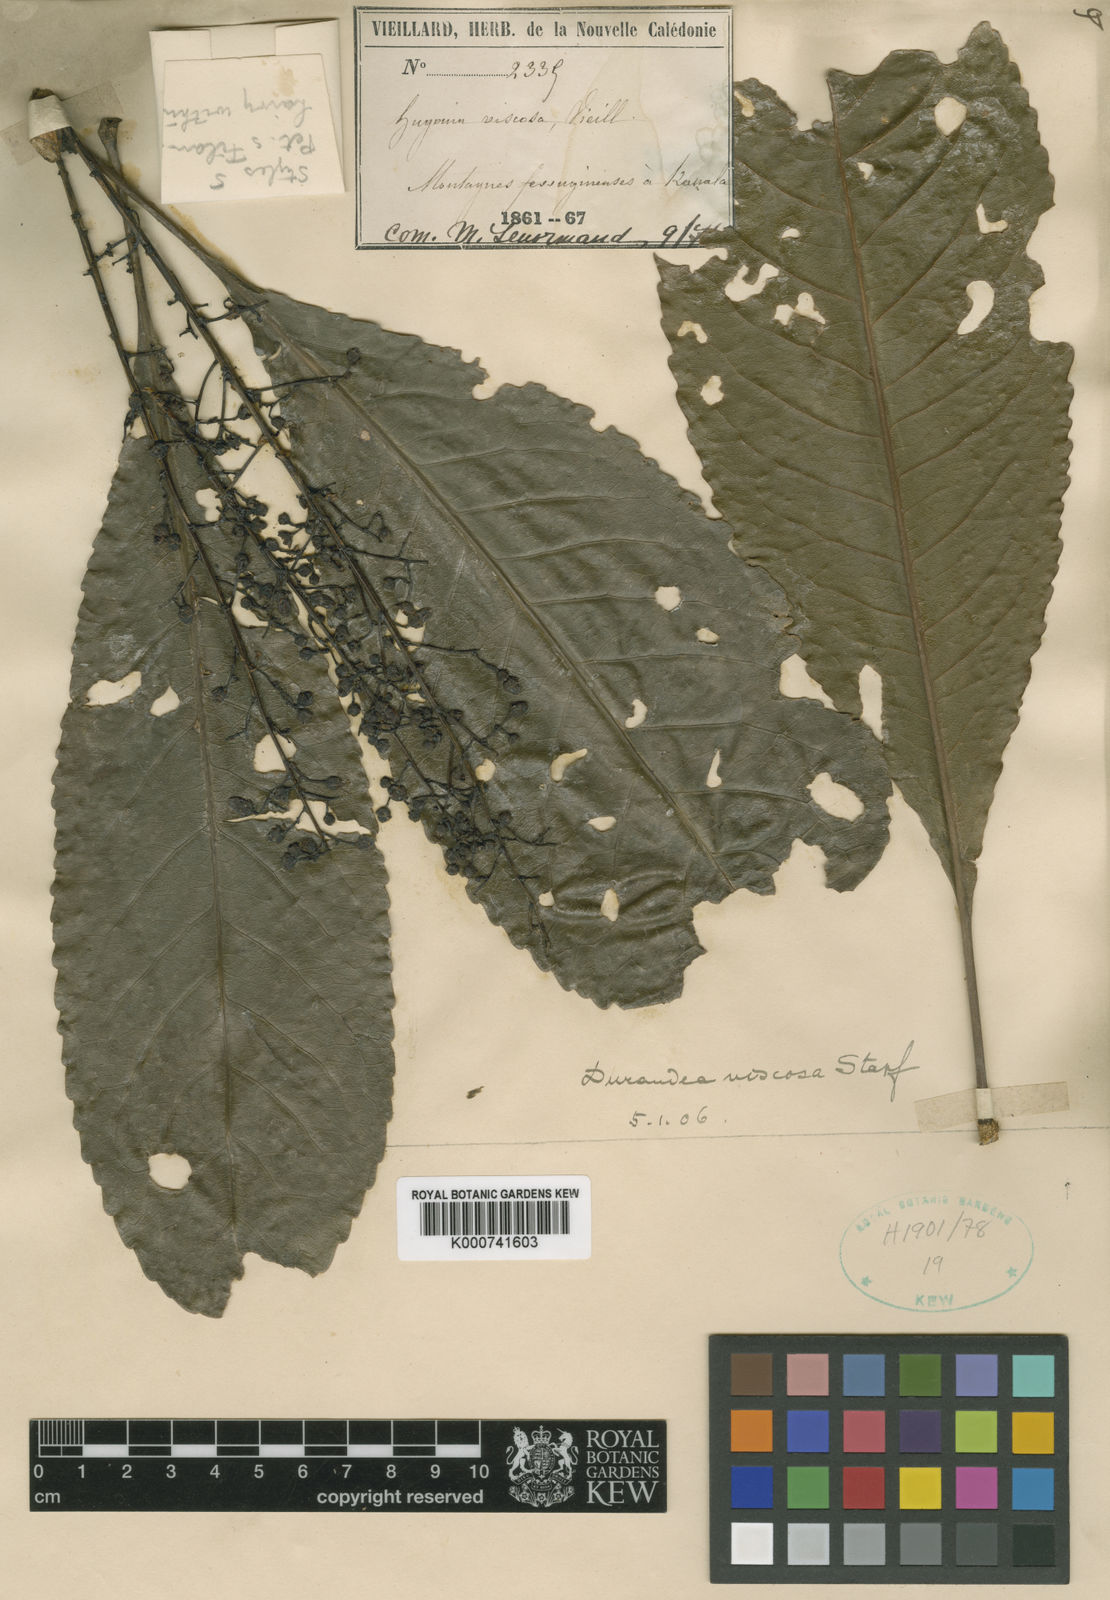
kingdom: Plantae
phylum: Tracheophyta
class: Magnoliopsida
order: Malpighiales
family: Linaceae
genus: Durandea
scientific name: Durandea viscosa
